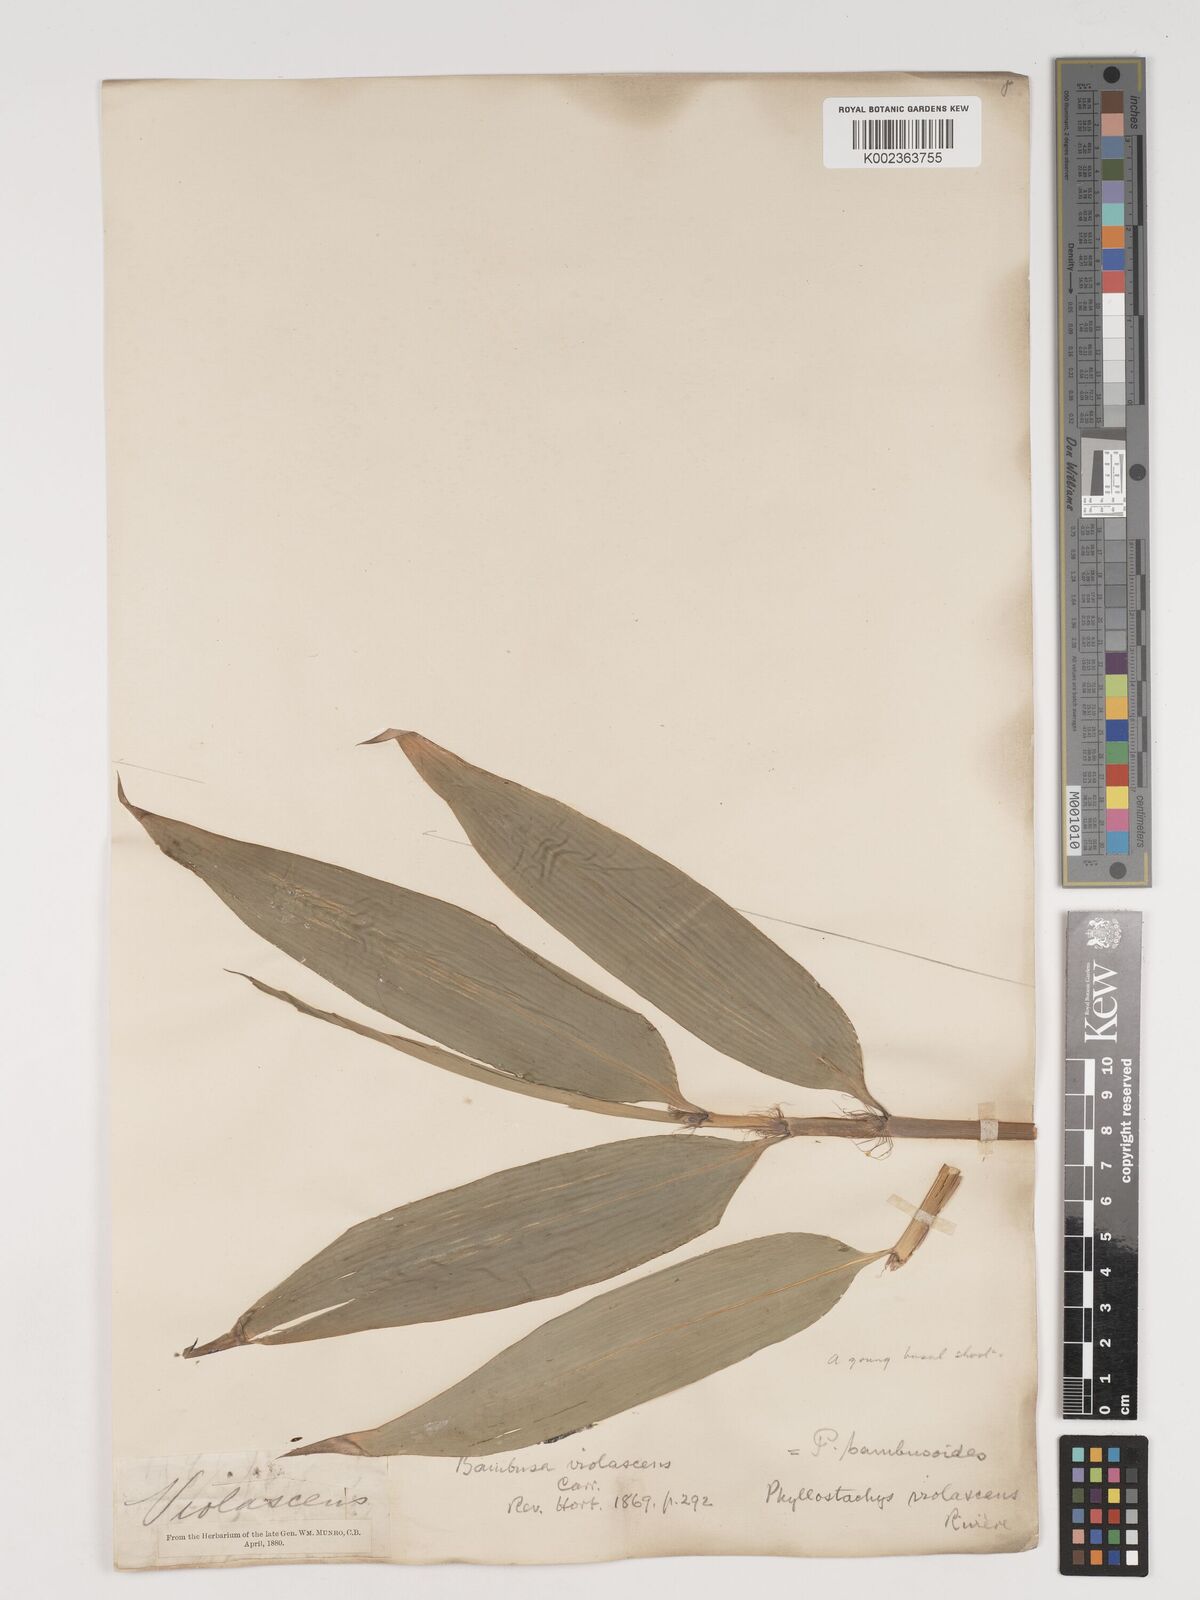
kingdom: Plantae
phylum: Tracheophyta
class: Liliopsida
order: Poales
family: Poaceae
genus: Phyllostachys
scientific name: Phyllostachys reticulata
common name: Bamboo
